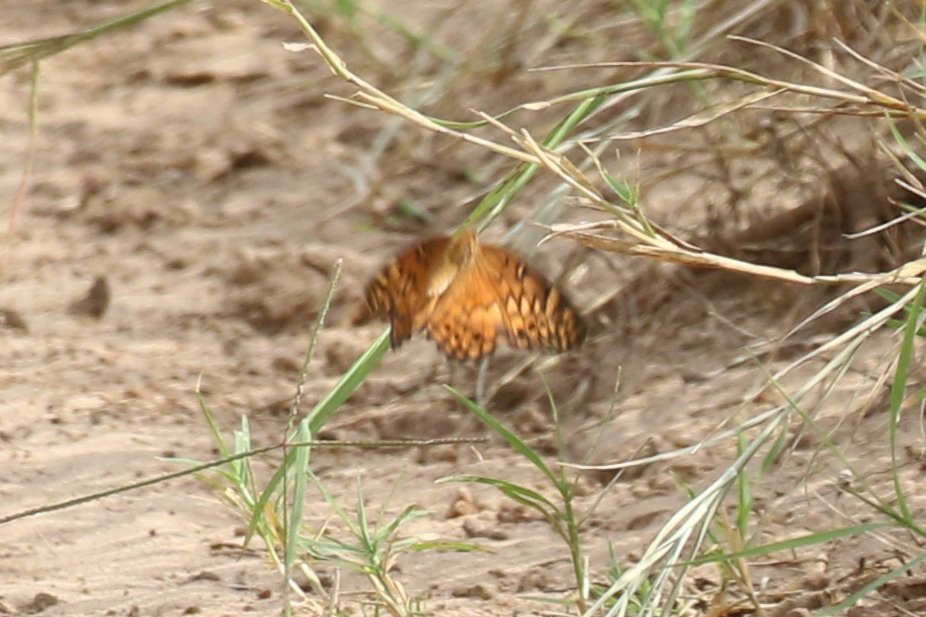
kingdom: Animalia
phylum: Arthropoda
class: Insecta
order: Lepidoptera
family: Nymphalidae
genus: Euptoieta
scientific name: Euptoieta claudia
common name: Variegated Fritillary
